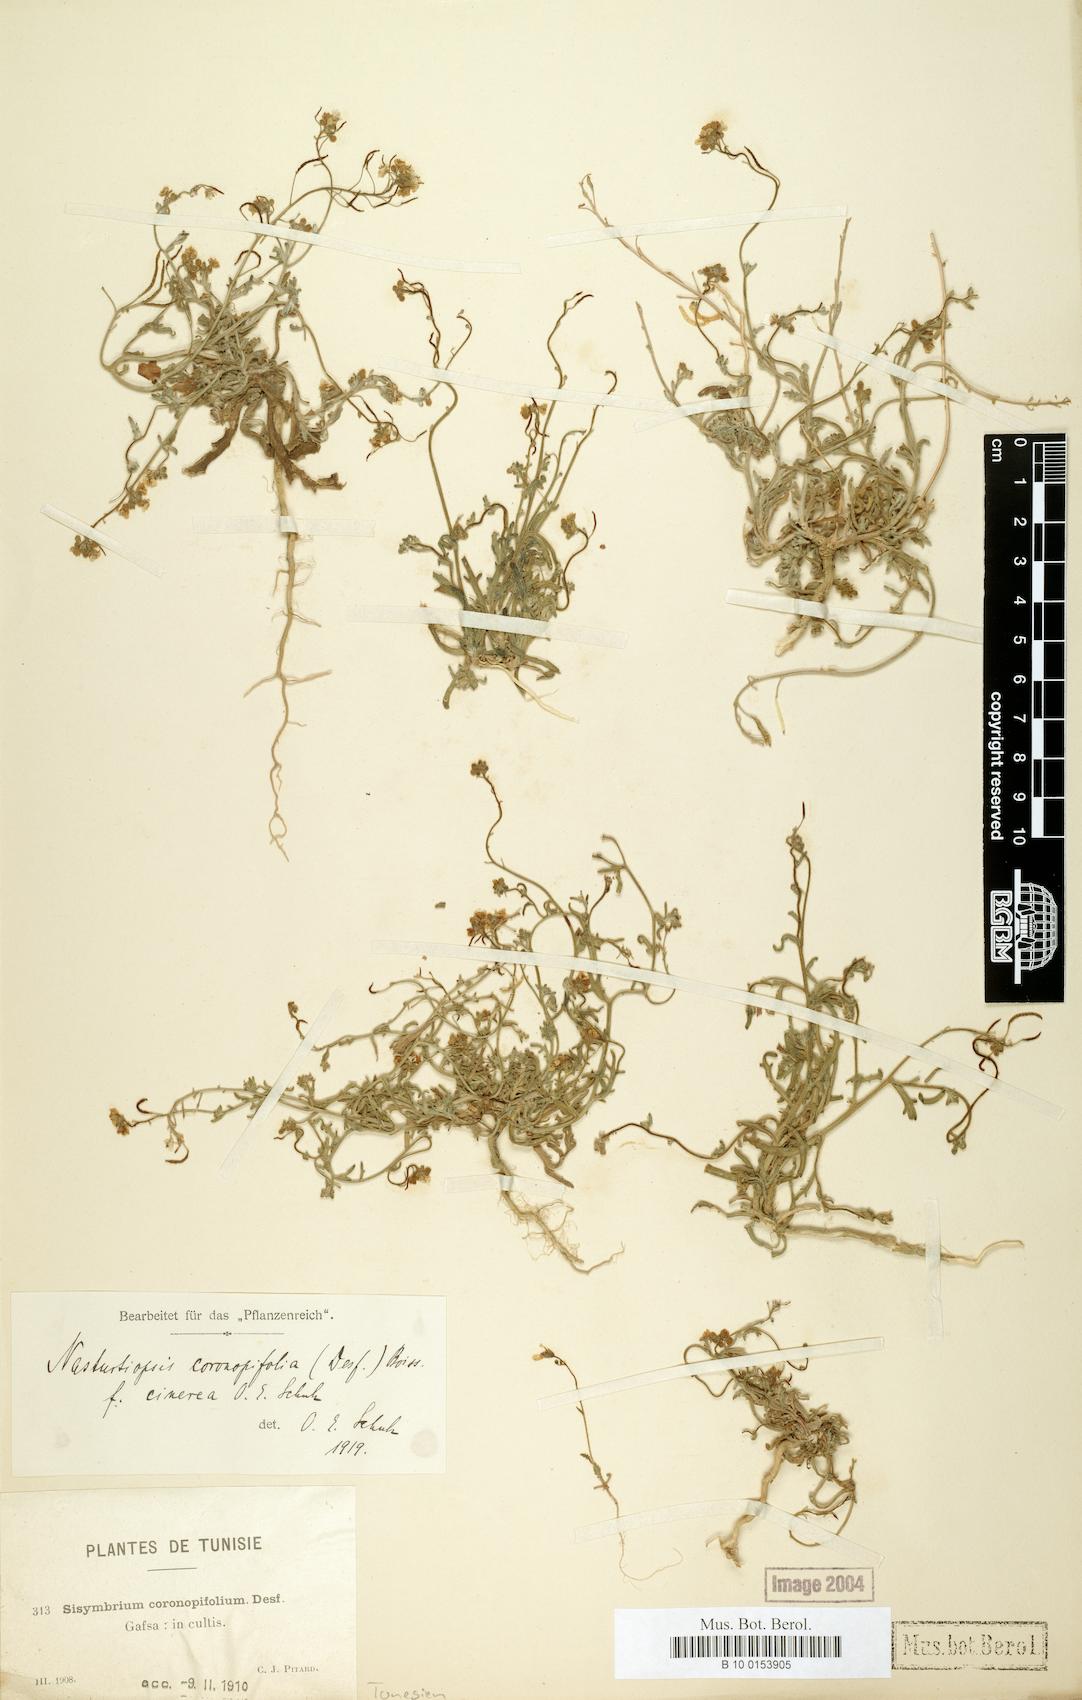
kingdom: Plantae
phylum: Tracheophyta
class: Magnoliopsida
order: Brassicales
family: Brassicaceae
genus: Nasturtiopsis
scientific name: Nasturtiopsis coronopifolia
